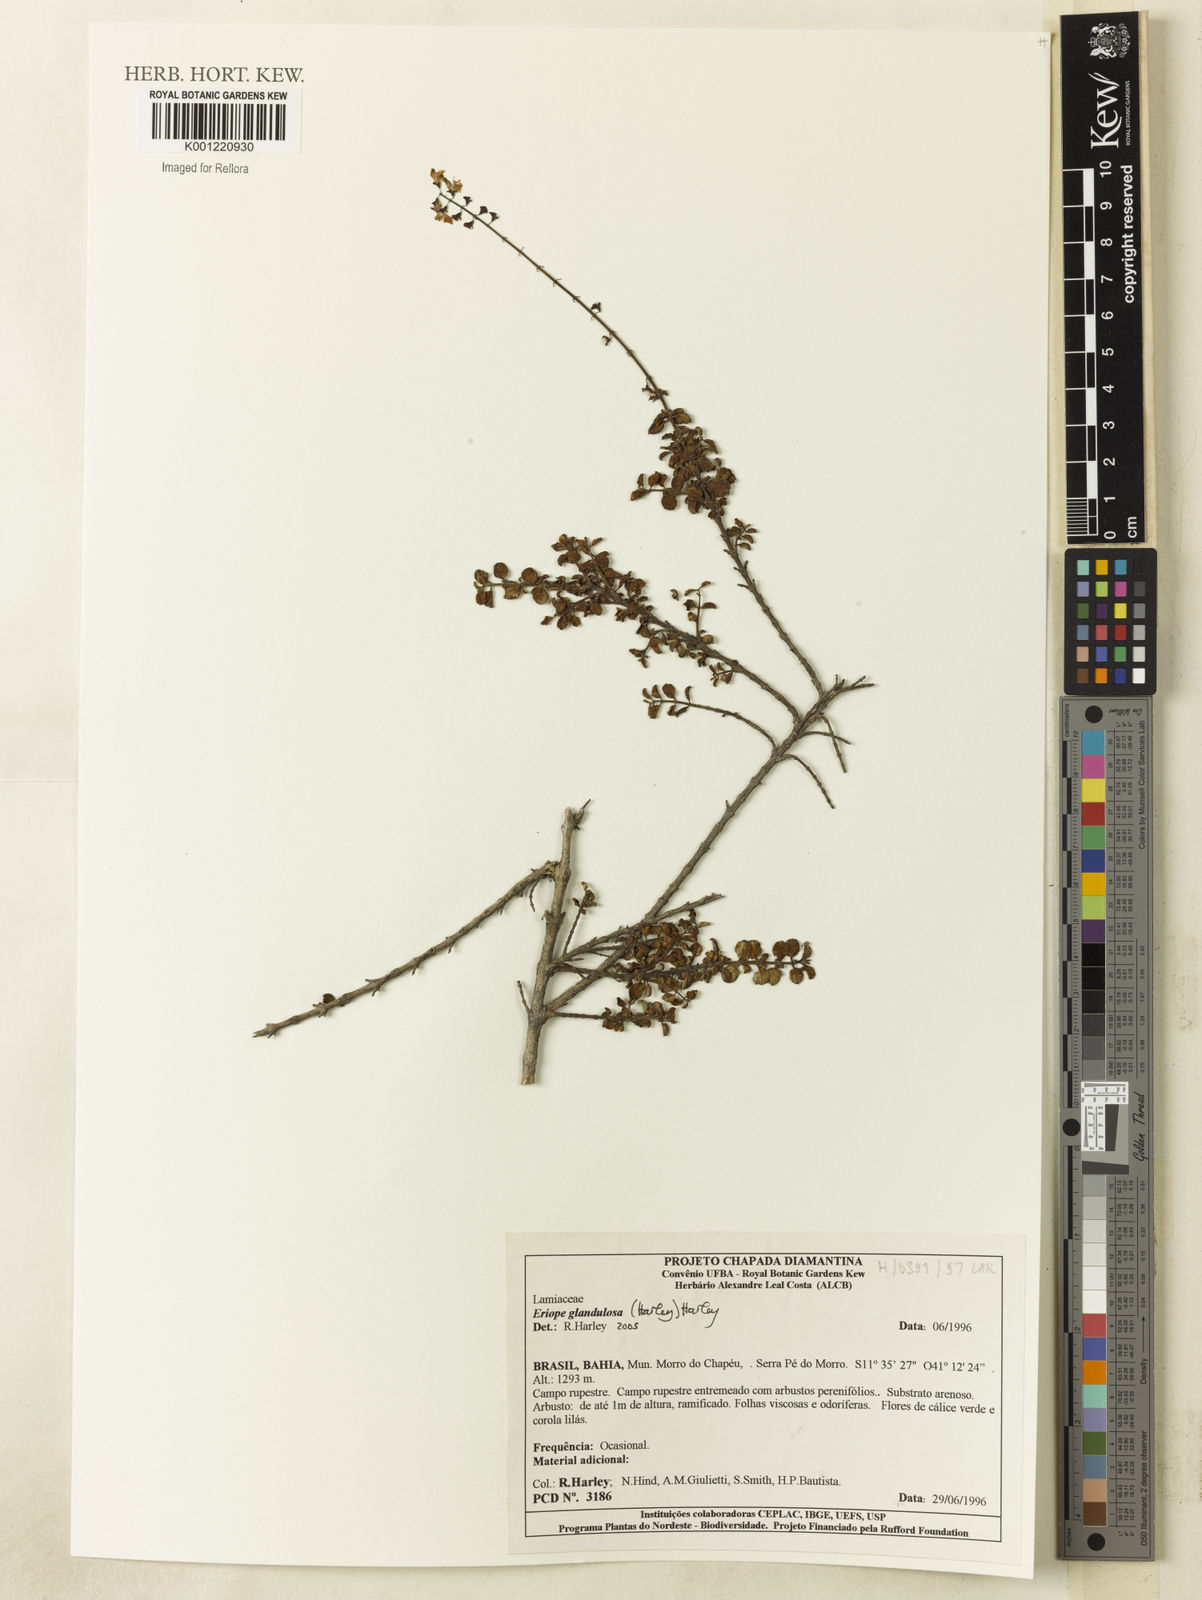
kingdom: Plantae
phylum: Tracheophyta
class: Magnoliopsida
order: Lamiales
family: Lamiaceae
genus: Eriope
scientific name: Eriope glandulosa
